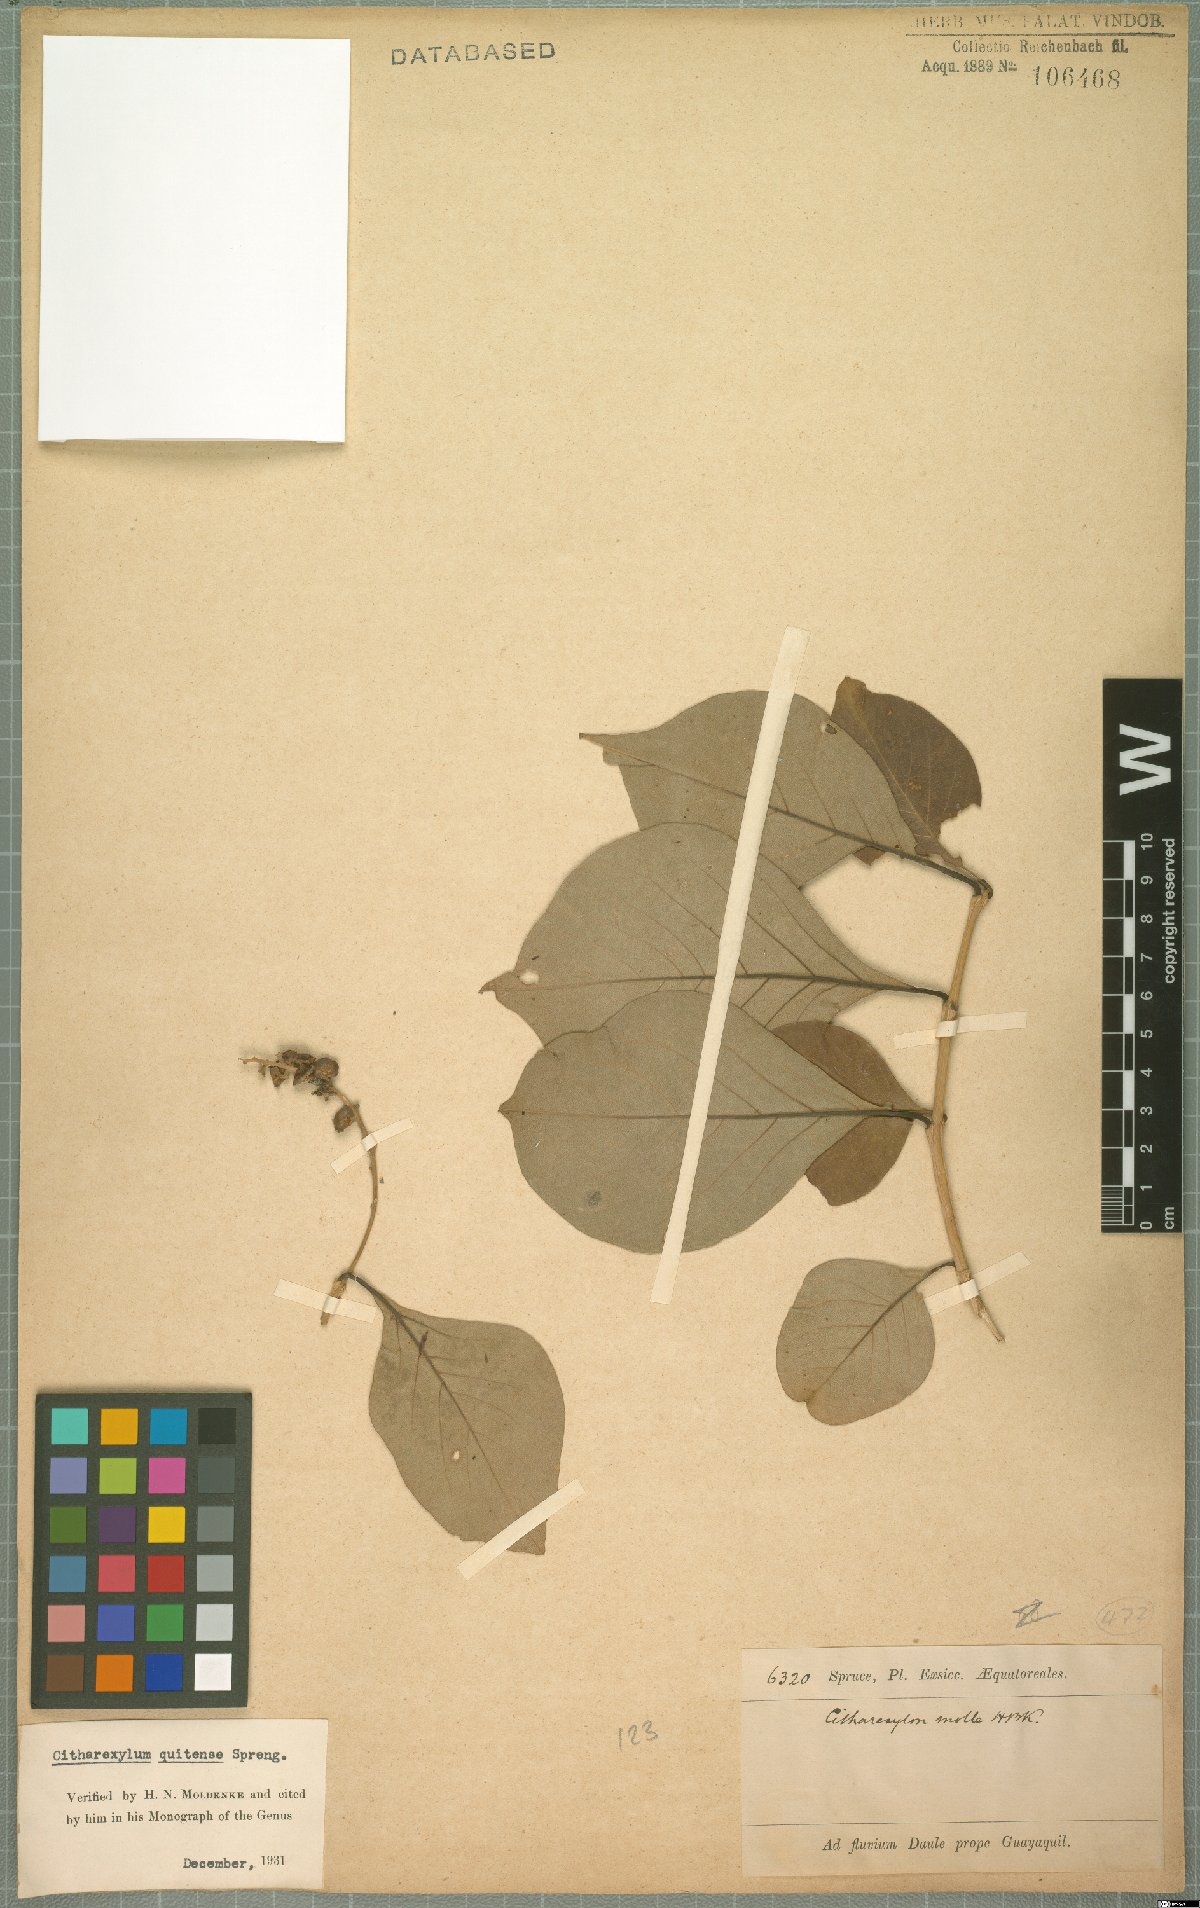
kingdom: Plantae
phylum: Tracheophyta
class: Magnoliopsida
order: Lamiales
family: Verbenaceae
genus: Citharexylum
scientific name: Citharexylum quitense
